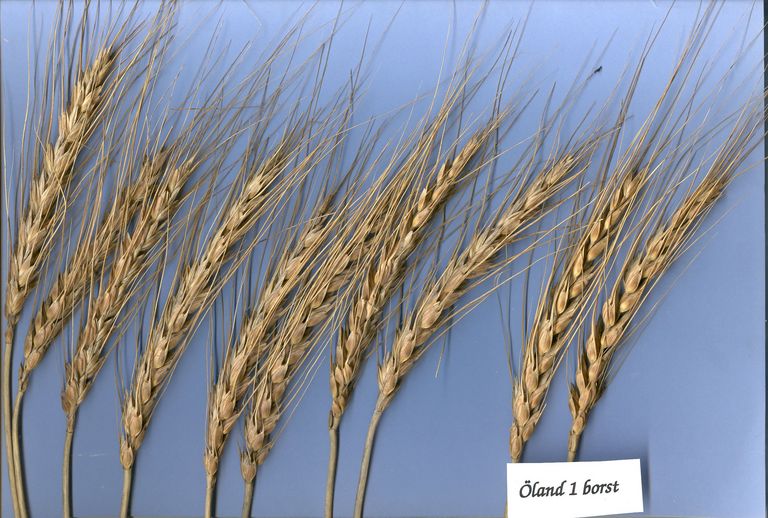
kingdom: Plantae
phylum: Tracheophyta
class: Liliopsida
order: Poales
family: Poaceae
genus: Triticum
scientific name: Triticum aestivum
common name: Common wheat
